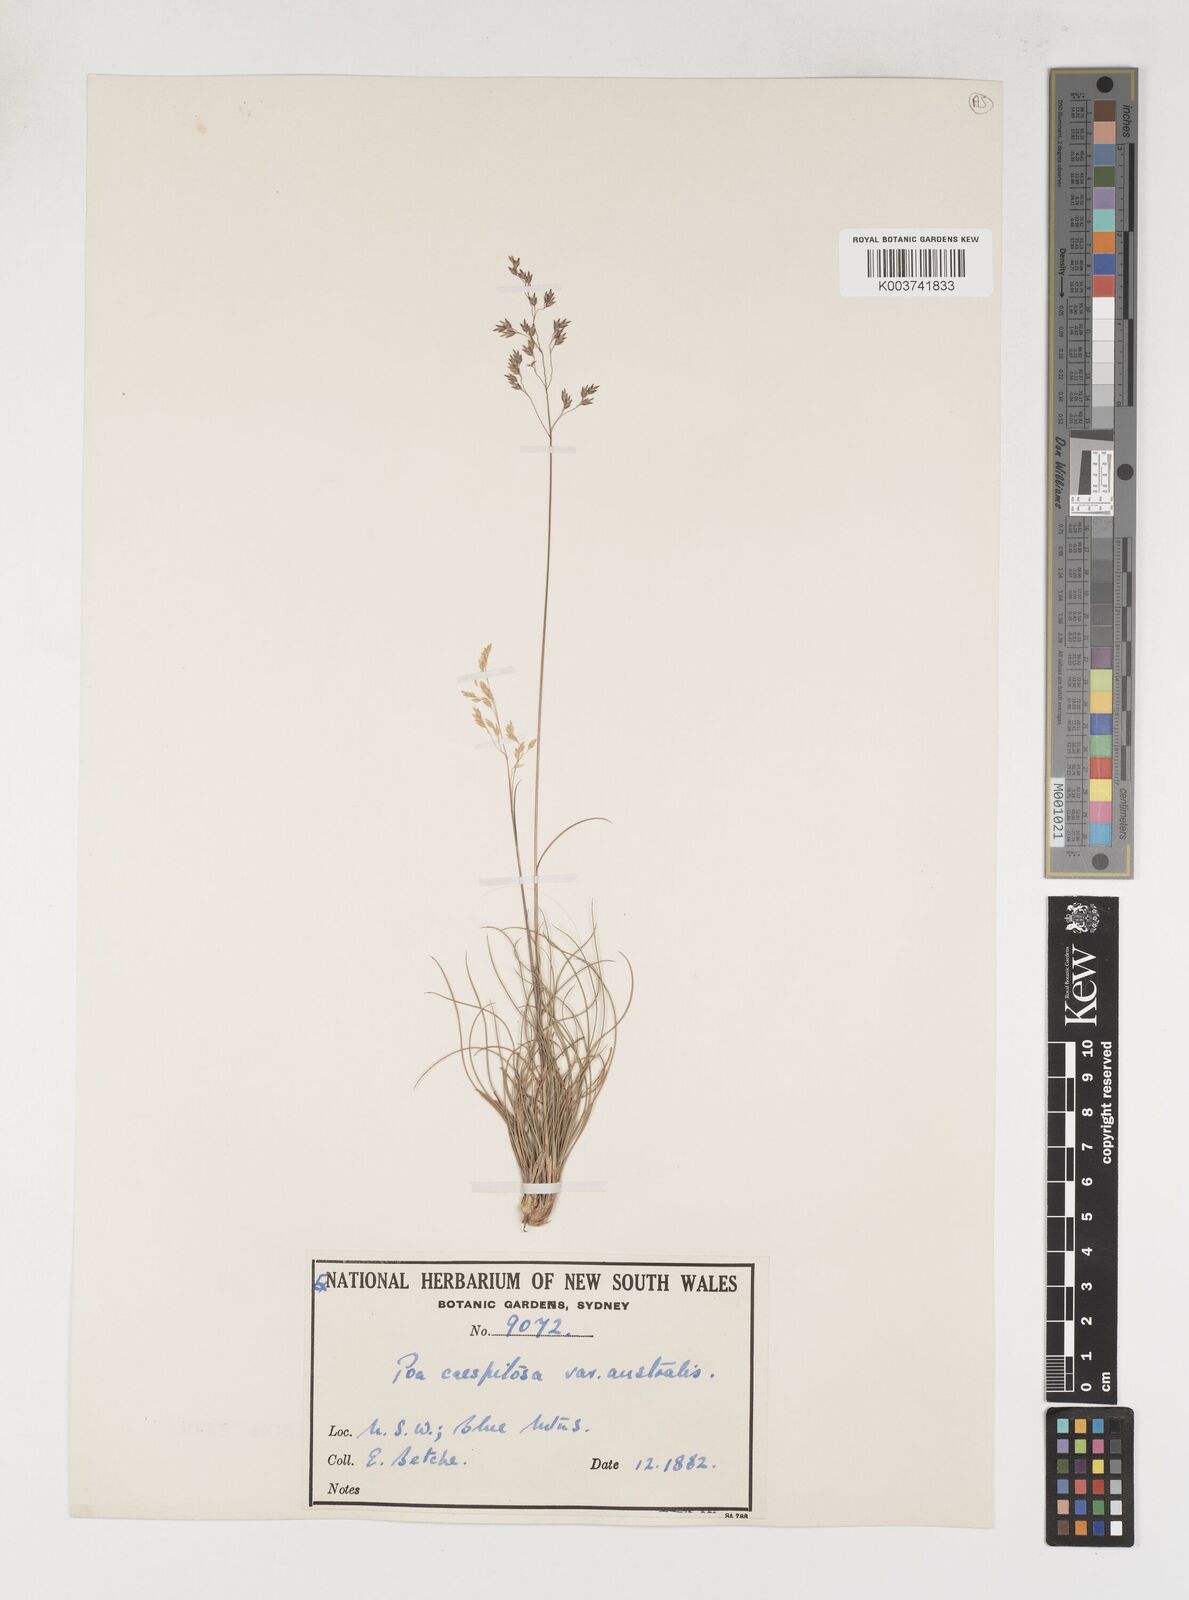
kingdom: Plantae
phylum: Tracheophyta
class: Liliopsida
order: Poales
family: Poaceae
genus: Poa
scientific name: Poa sieberiana
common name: Tussock poa
